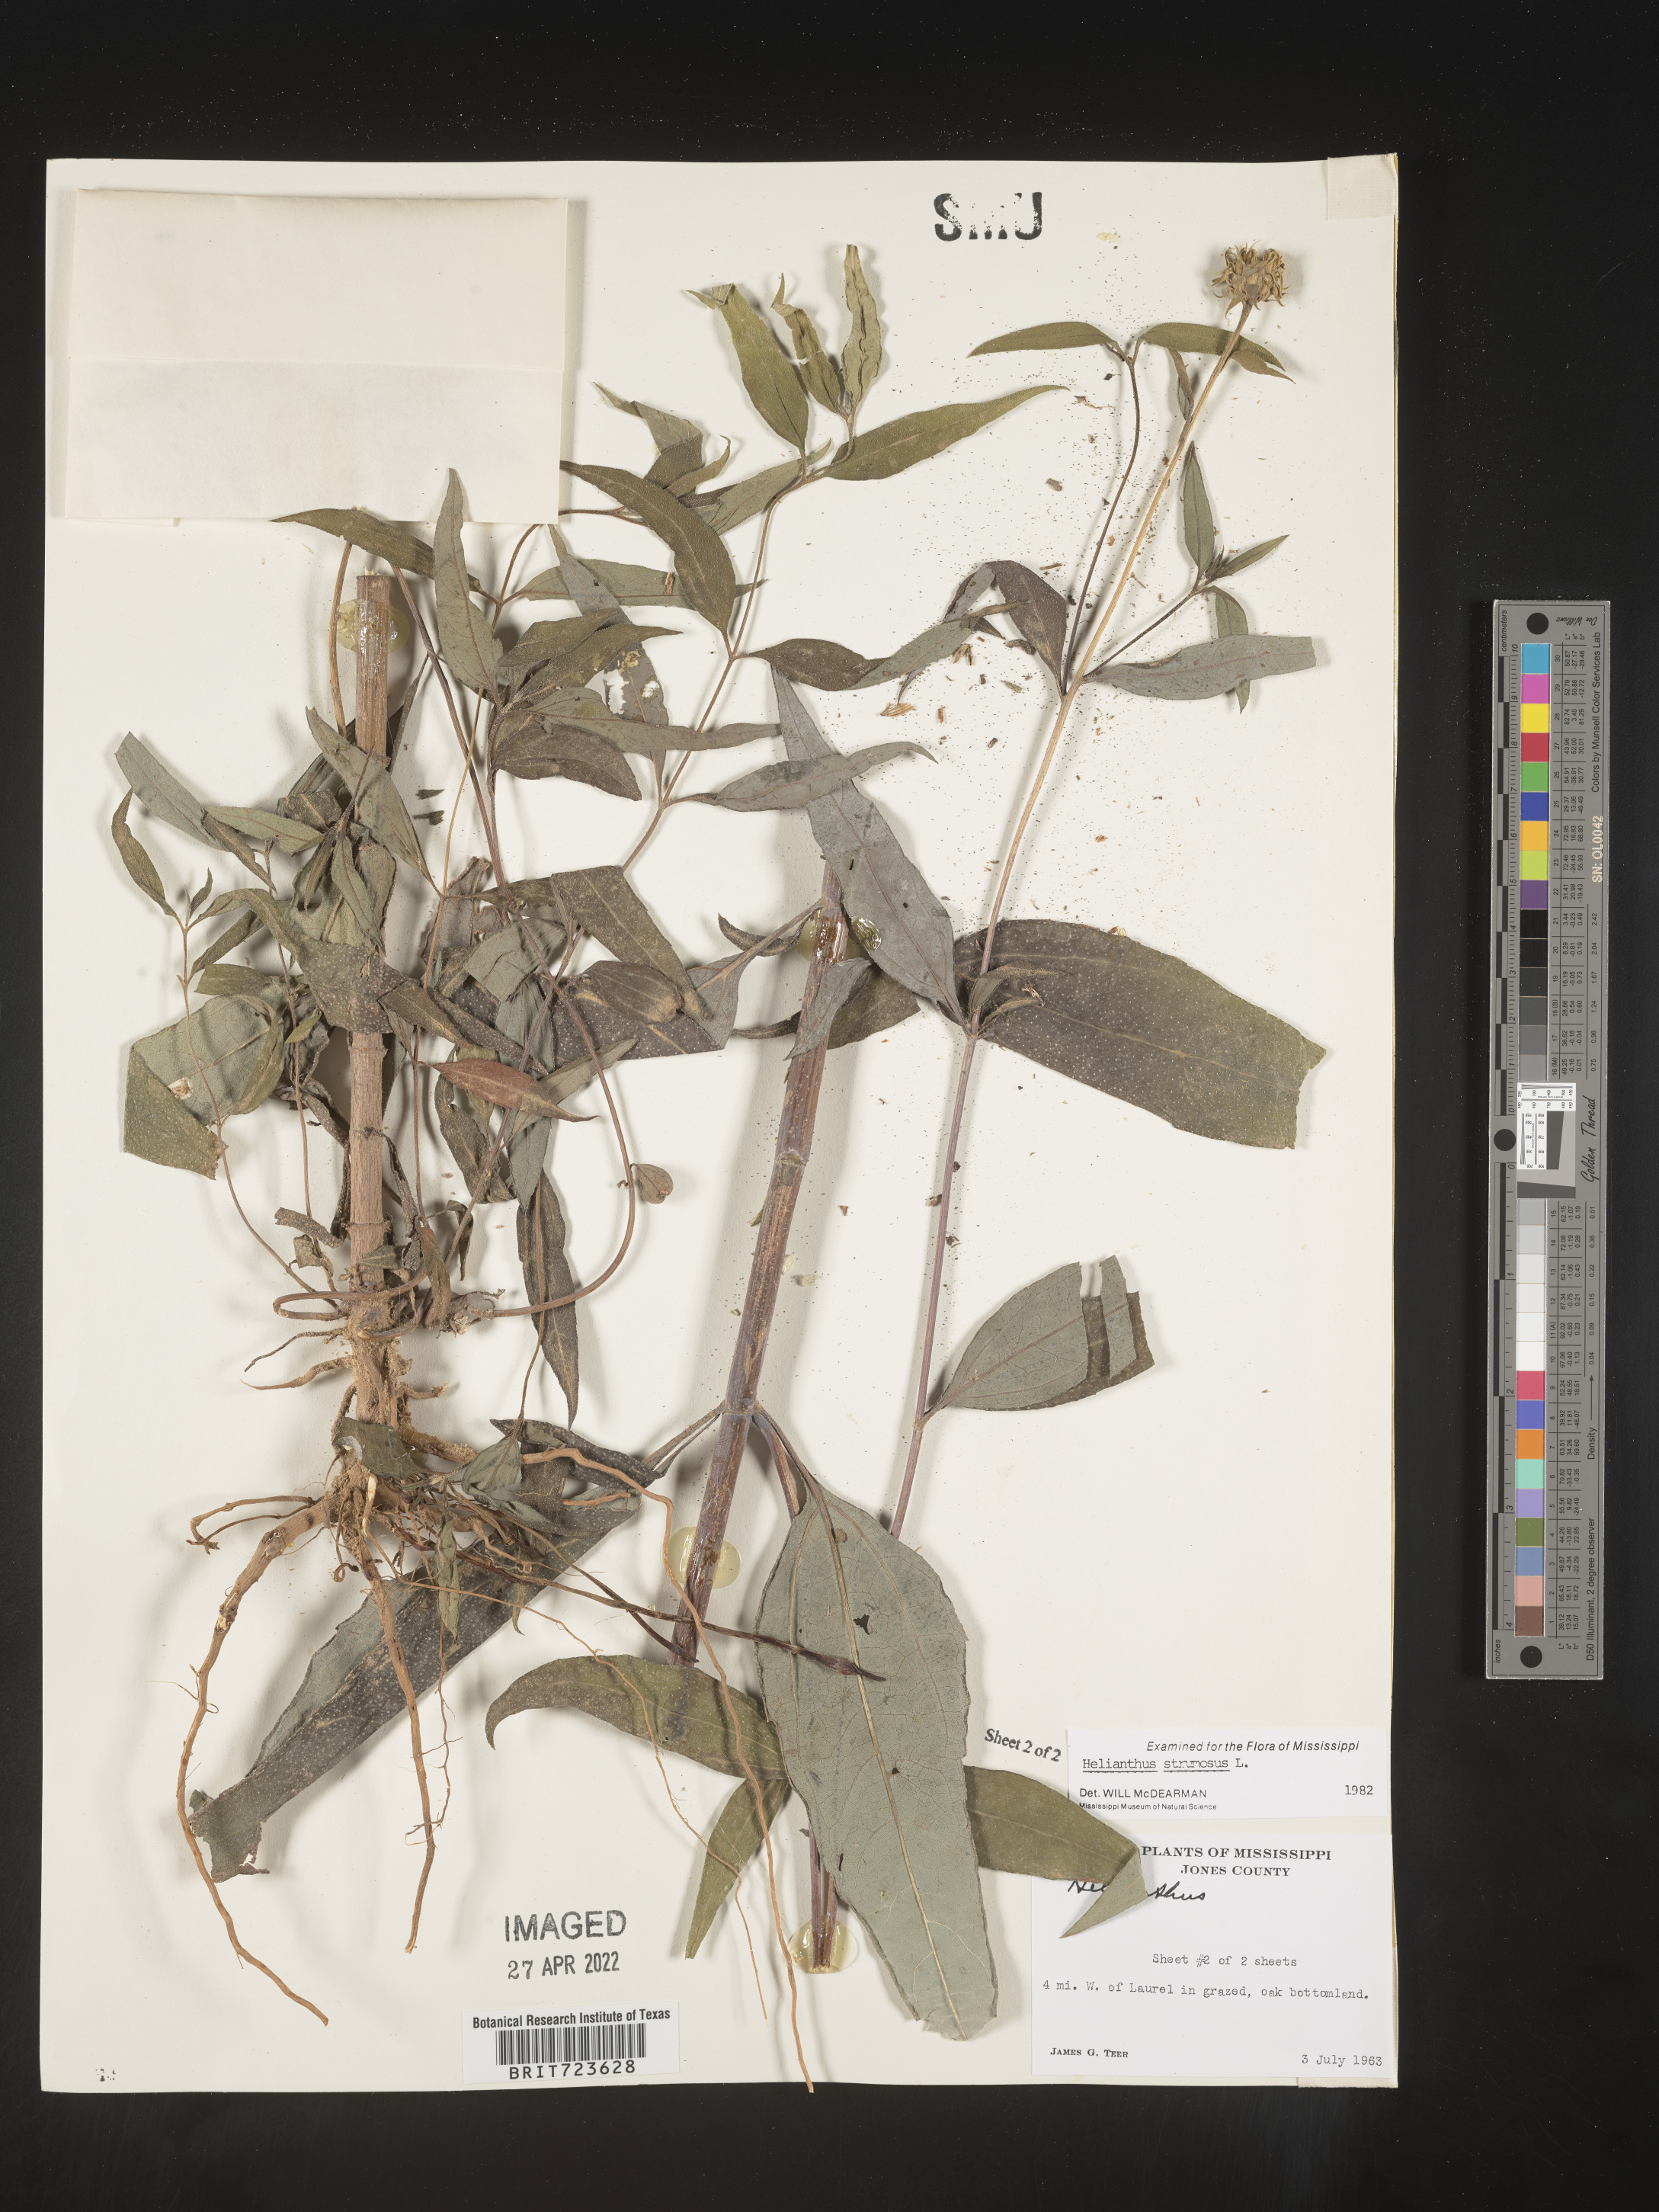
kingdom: Plantae
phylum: Tracheophyta
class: Magnoliopsida
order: Asterales
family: Asteraceae
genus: Helianthus
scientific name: Helianthus strumosus
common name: Pale-leaved sunflower
